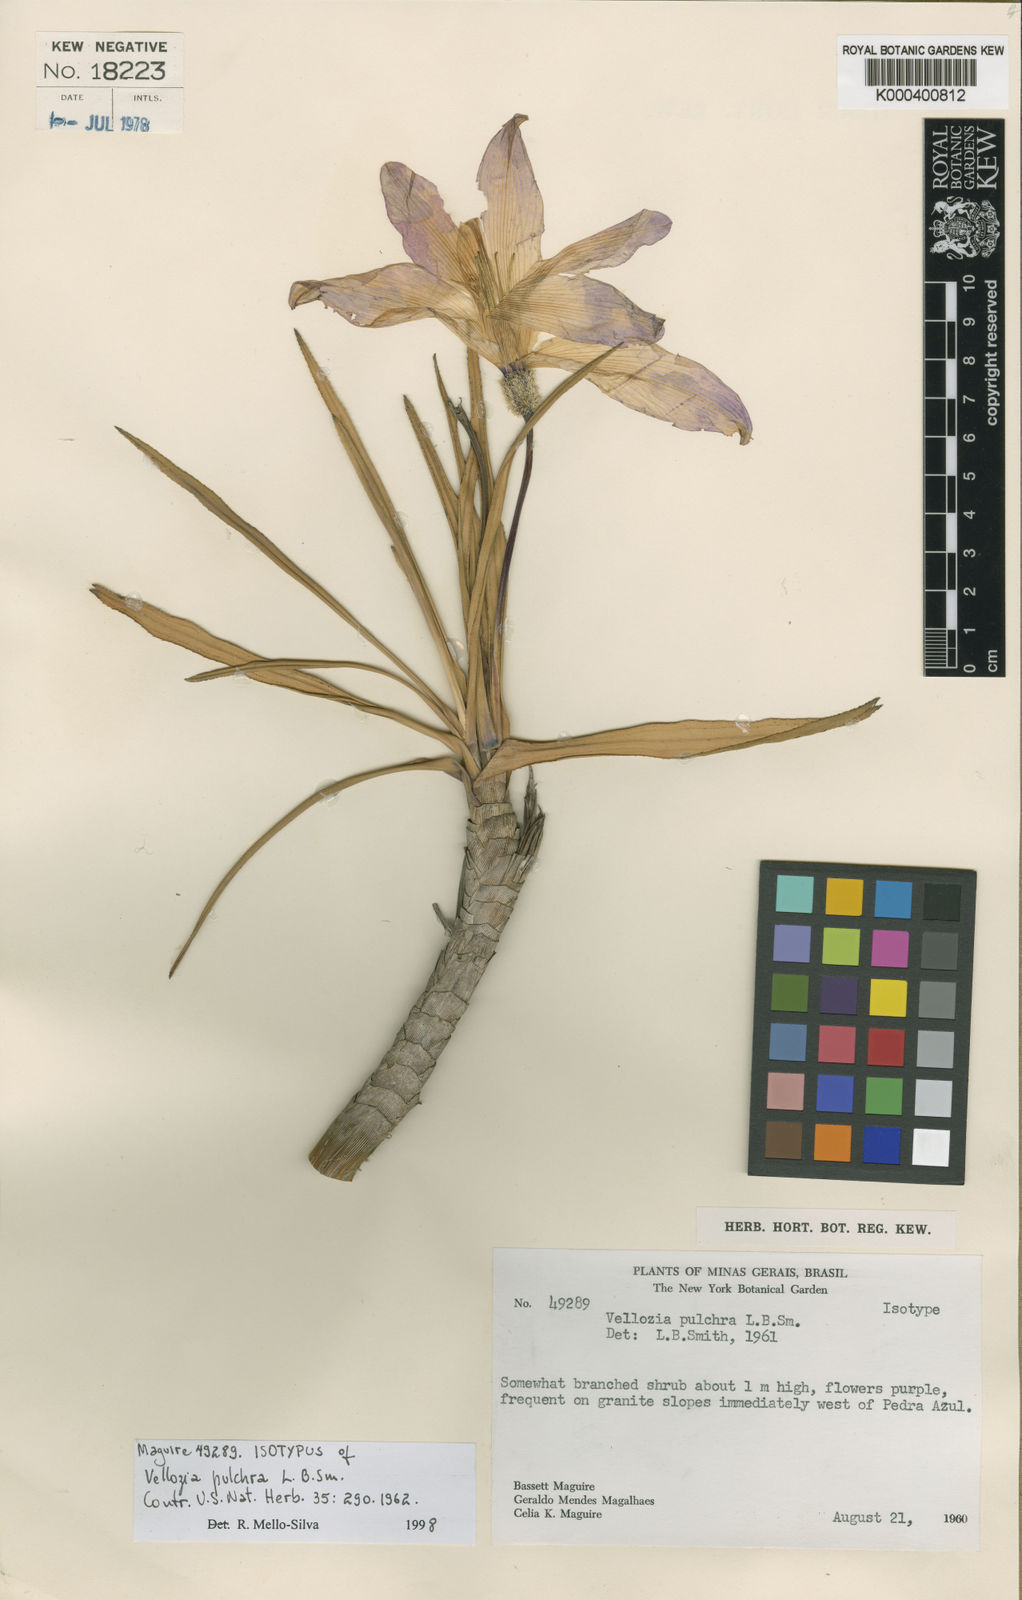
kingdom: Plantae
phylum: Tracheophyta
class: Liliopsida
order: Pandanales
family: Velloziaceae
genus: Vellozia
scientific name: Vellozia pulchra
